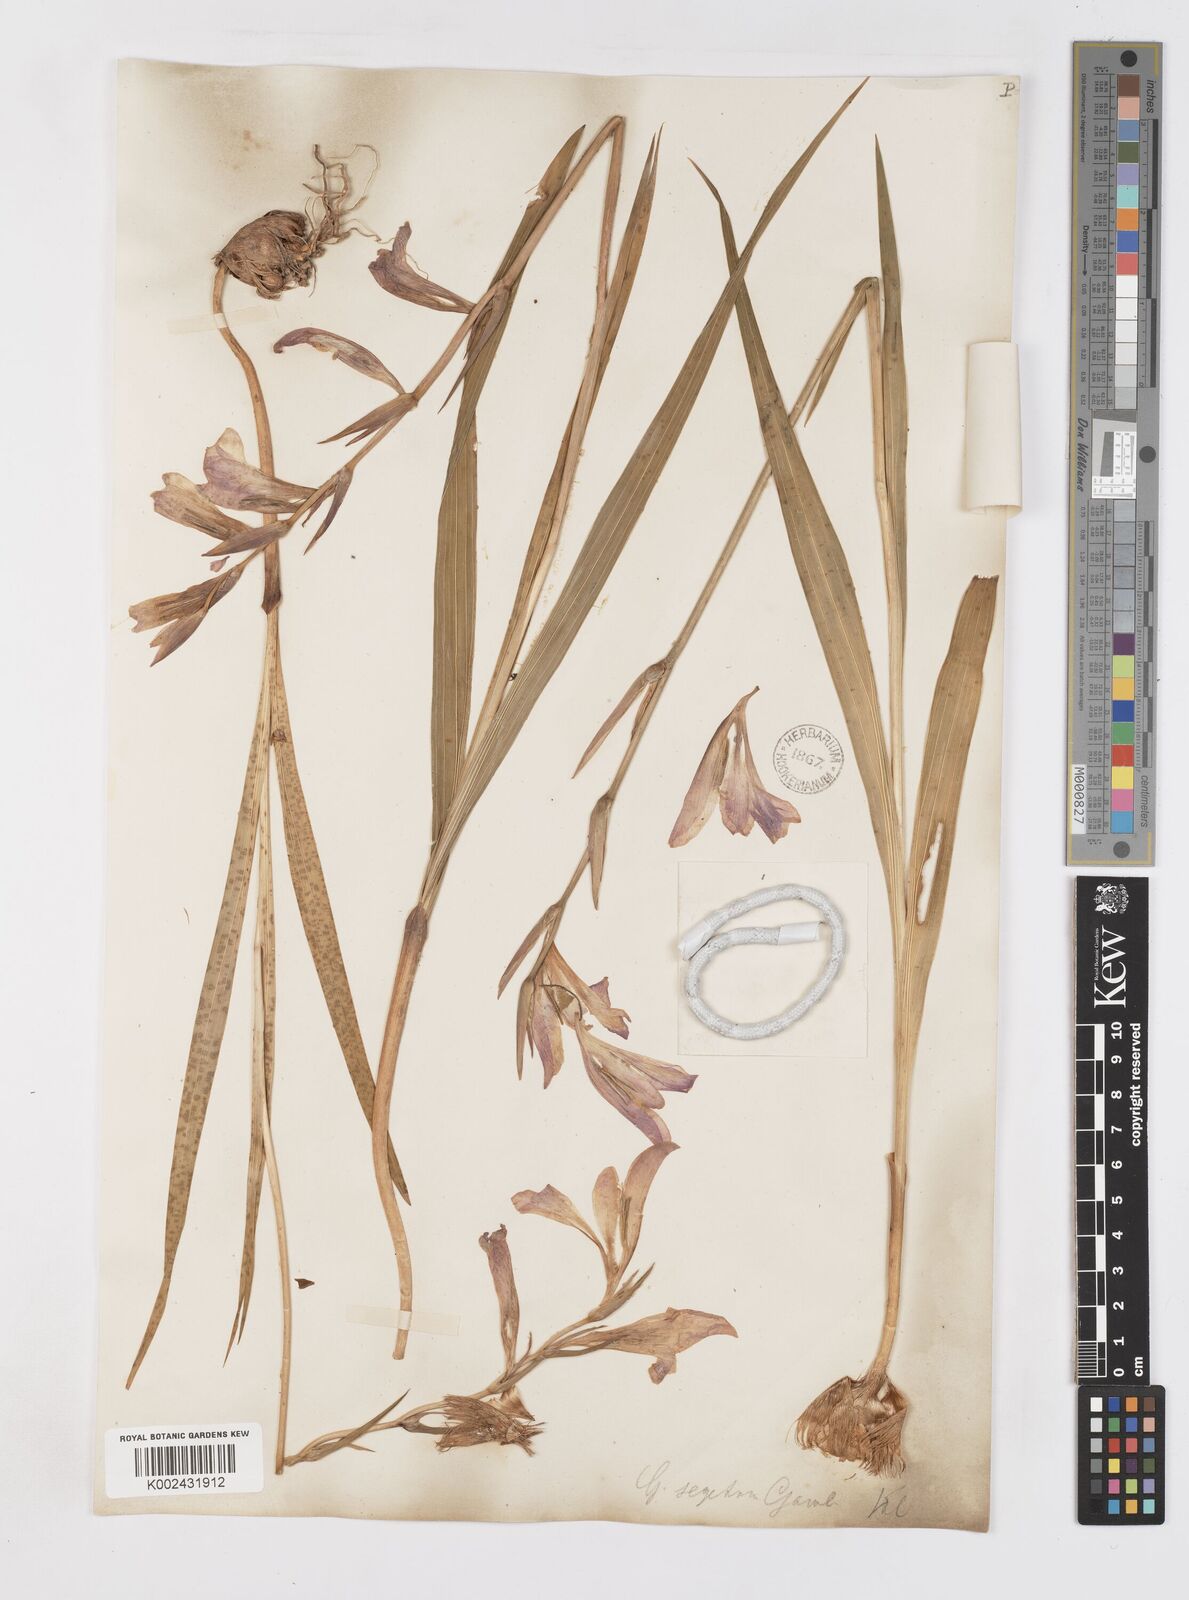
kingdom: Plantae
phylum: Tracheophyta
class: Liliopsida
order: Asparagales
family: Iridaceae
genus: Gladiolus
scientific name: Gladiolus italicus
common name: Field gladiolus
